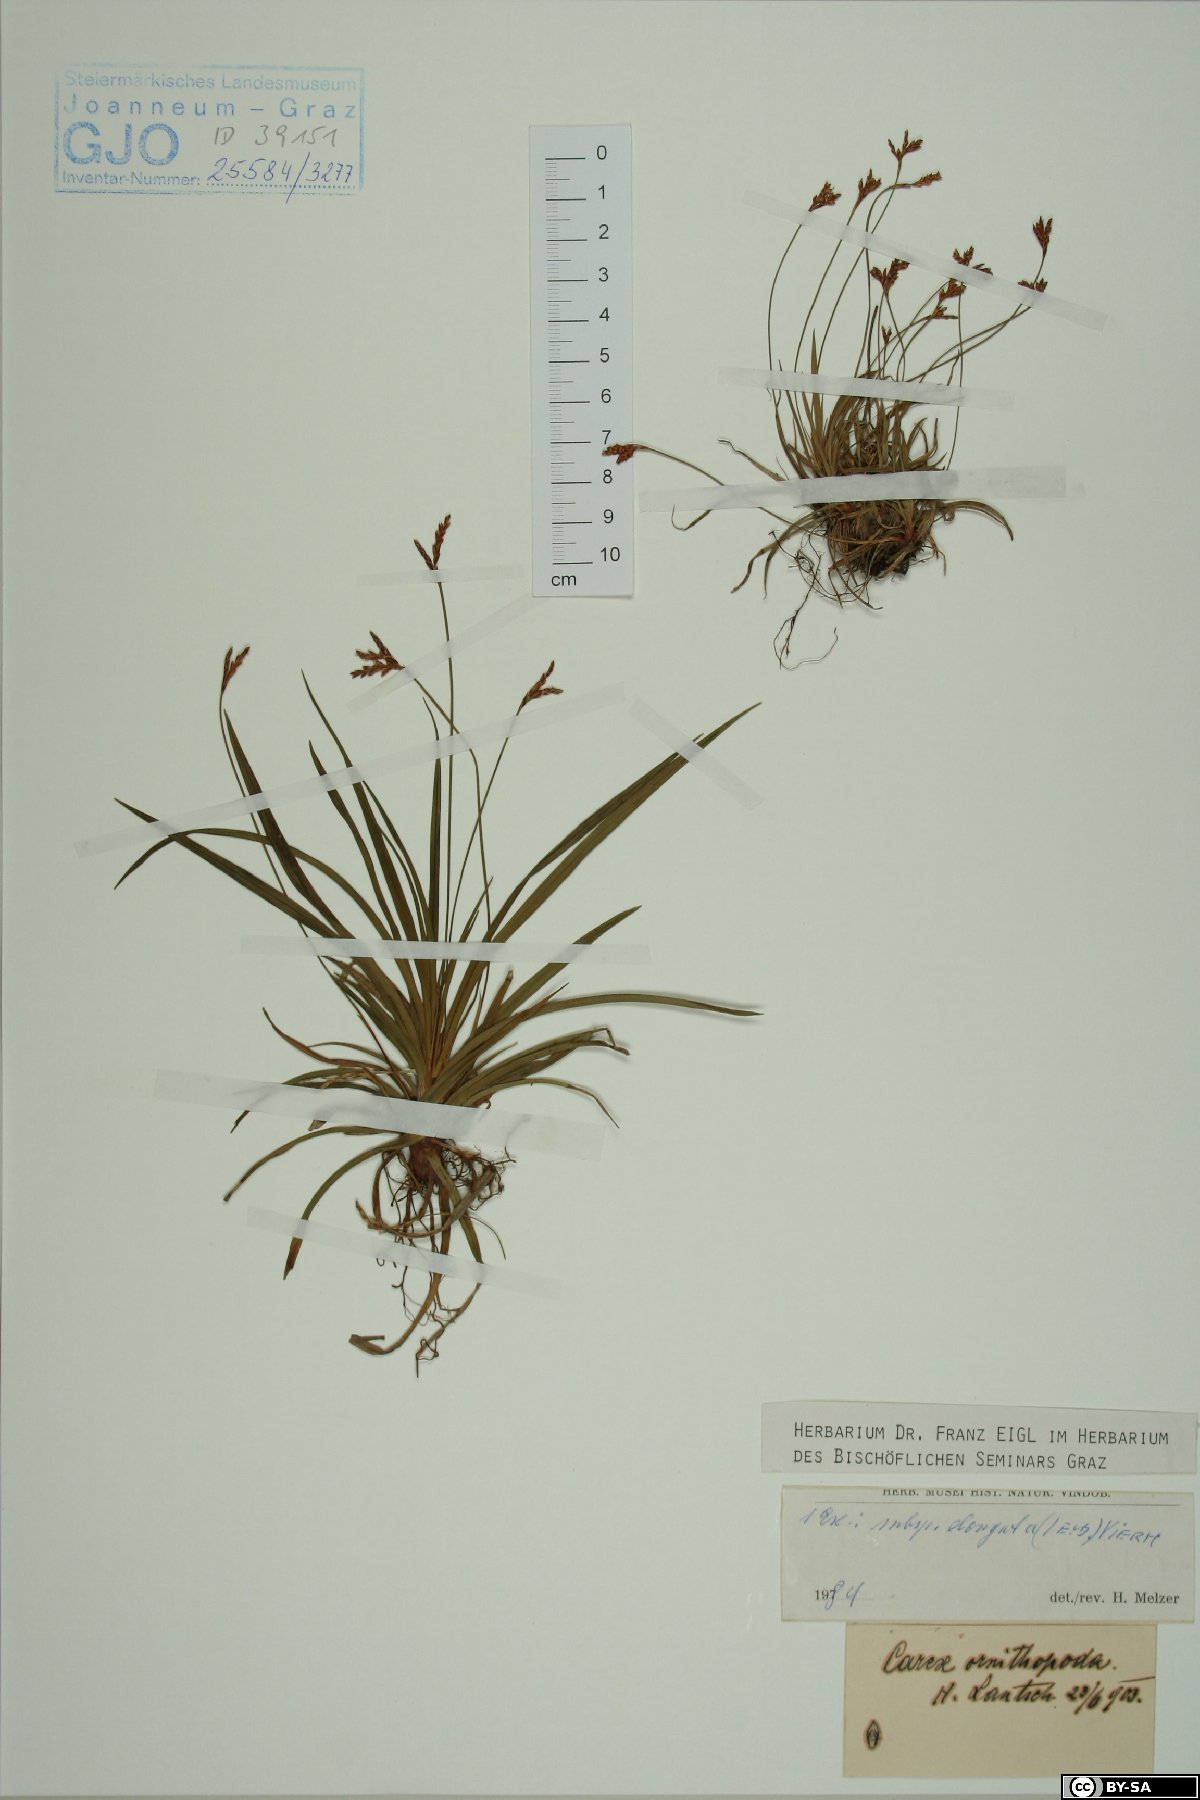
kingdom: Plantae
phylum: Tracheophyta
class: Liliopsida
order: Poales
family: Cyperaceae
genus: Carex
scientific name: Carex ornithopoda
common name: Bird's-foot sedge
